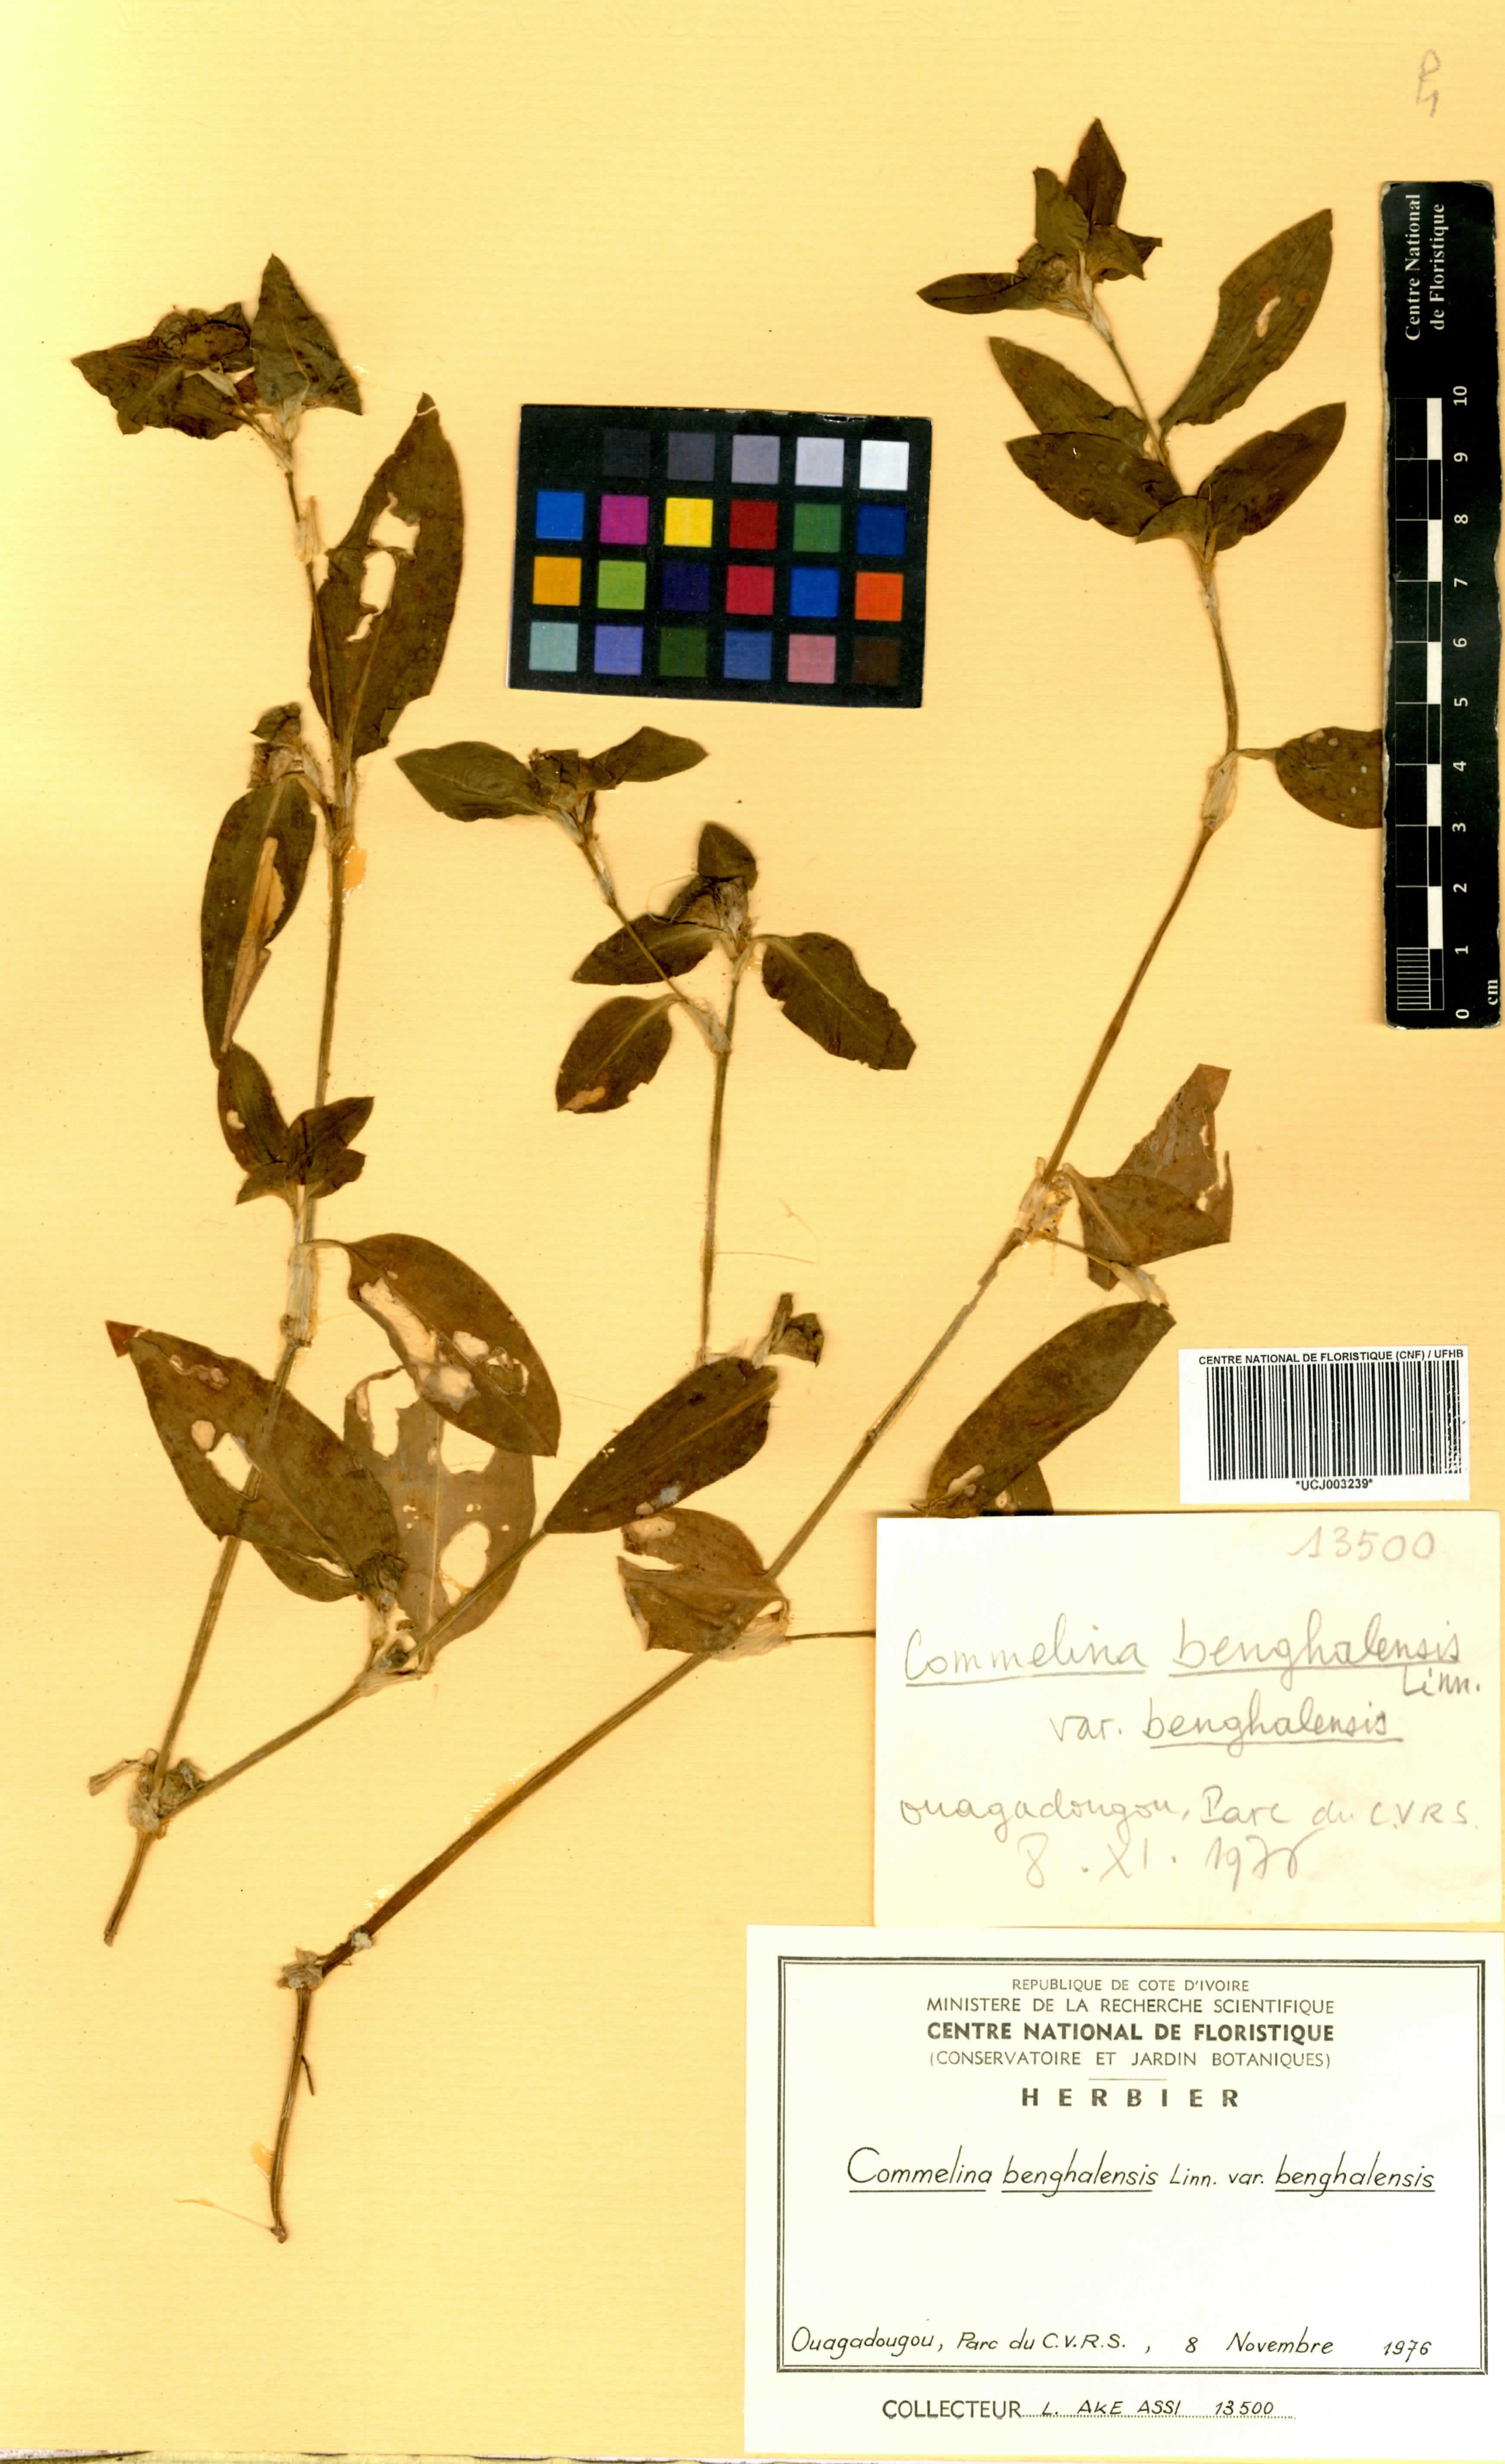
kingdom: Plantae
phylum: Tracheophyta
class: Liliopsida
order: Commelinales
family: Commelinaceae
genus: Commelina
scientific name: Commelina benghalensis
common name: Jio
